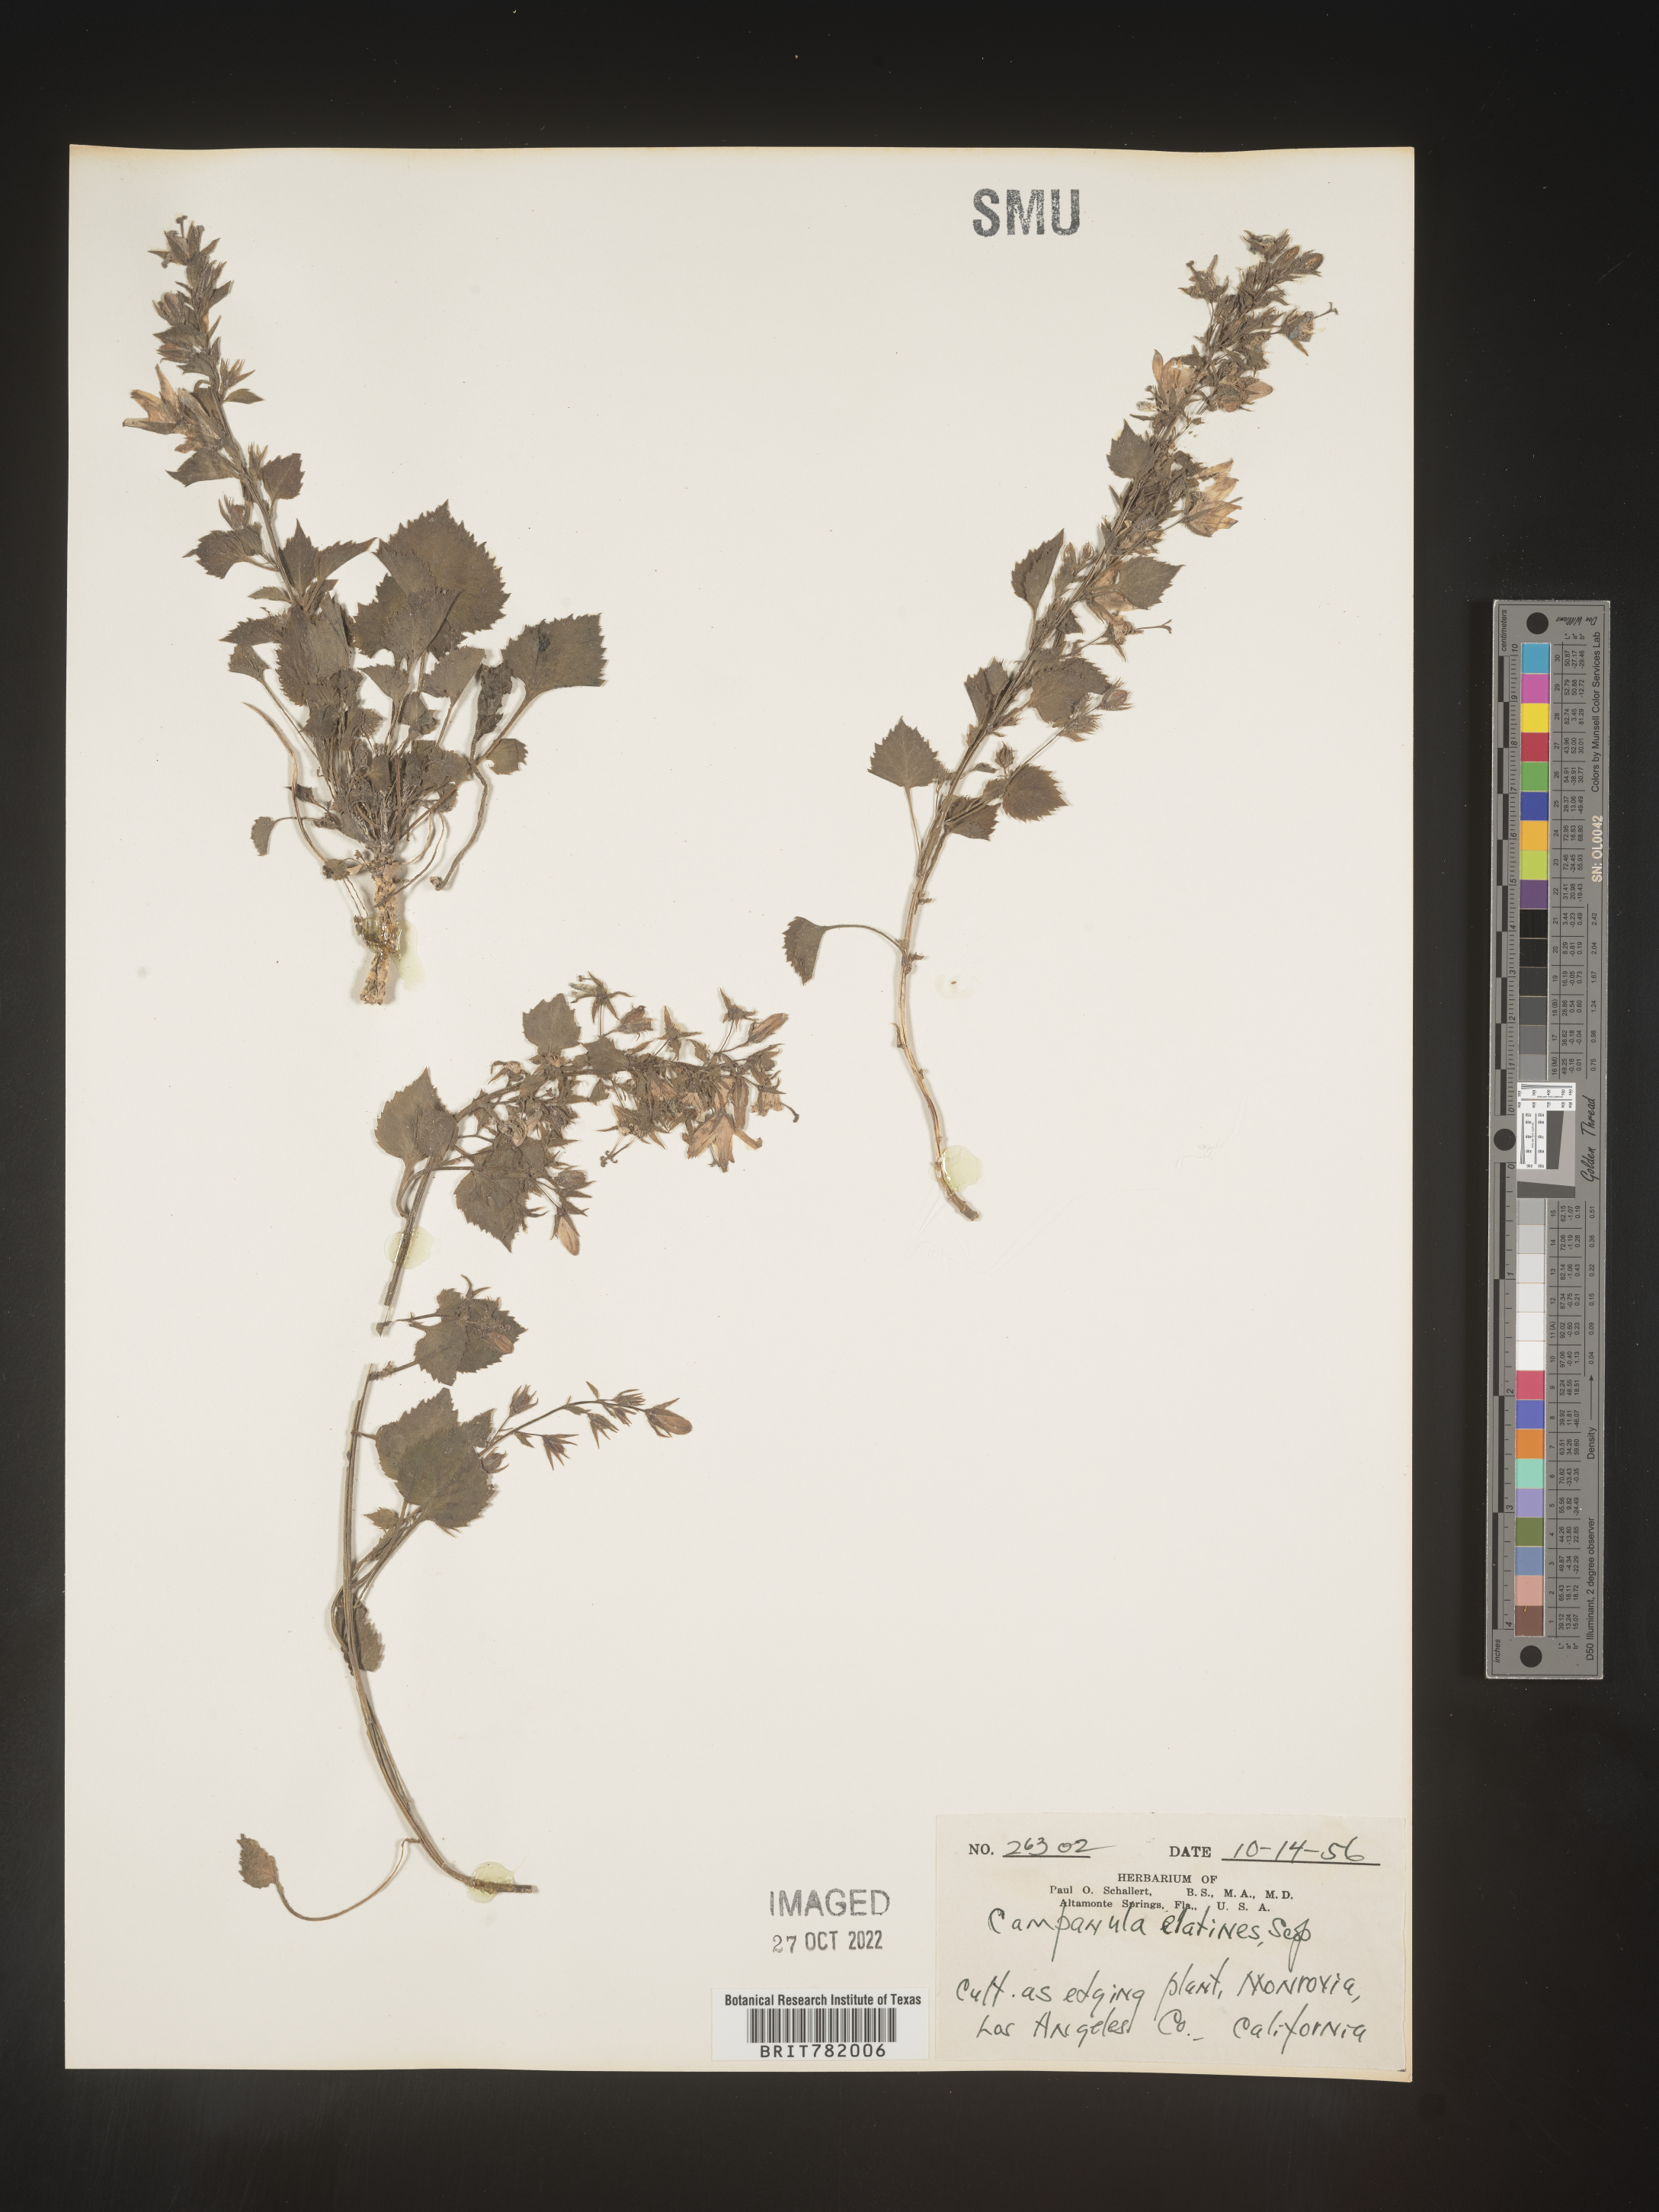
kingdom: Plantae
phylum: Tracheophyta
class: Magnoliopsida
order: Asterales
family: Campanulaceae
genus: Campanula
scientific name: Campanula
